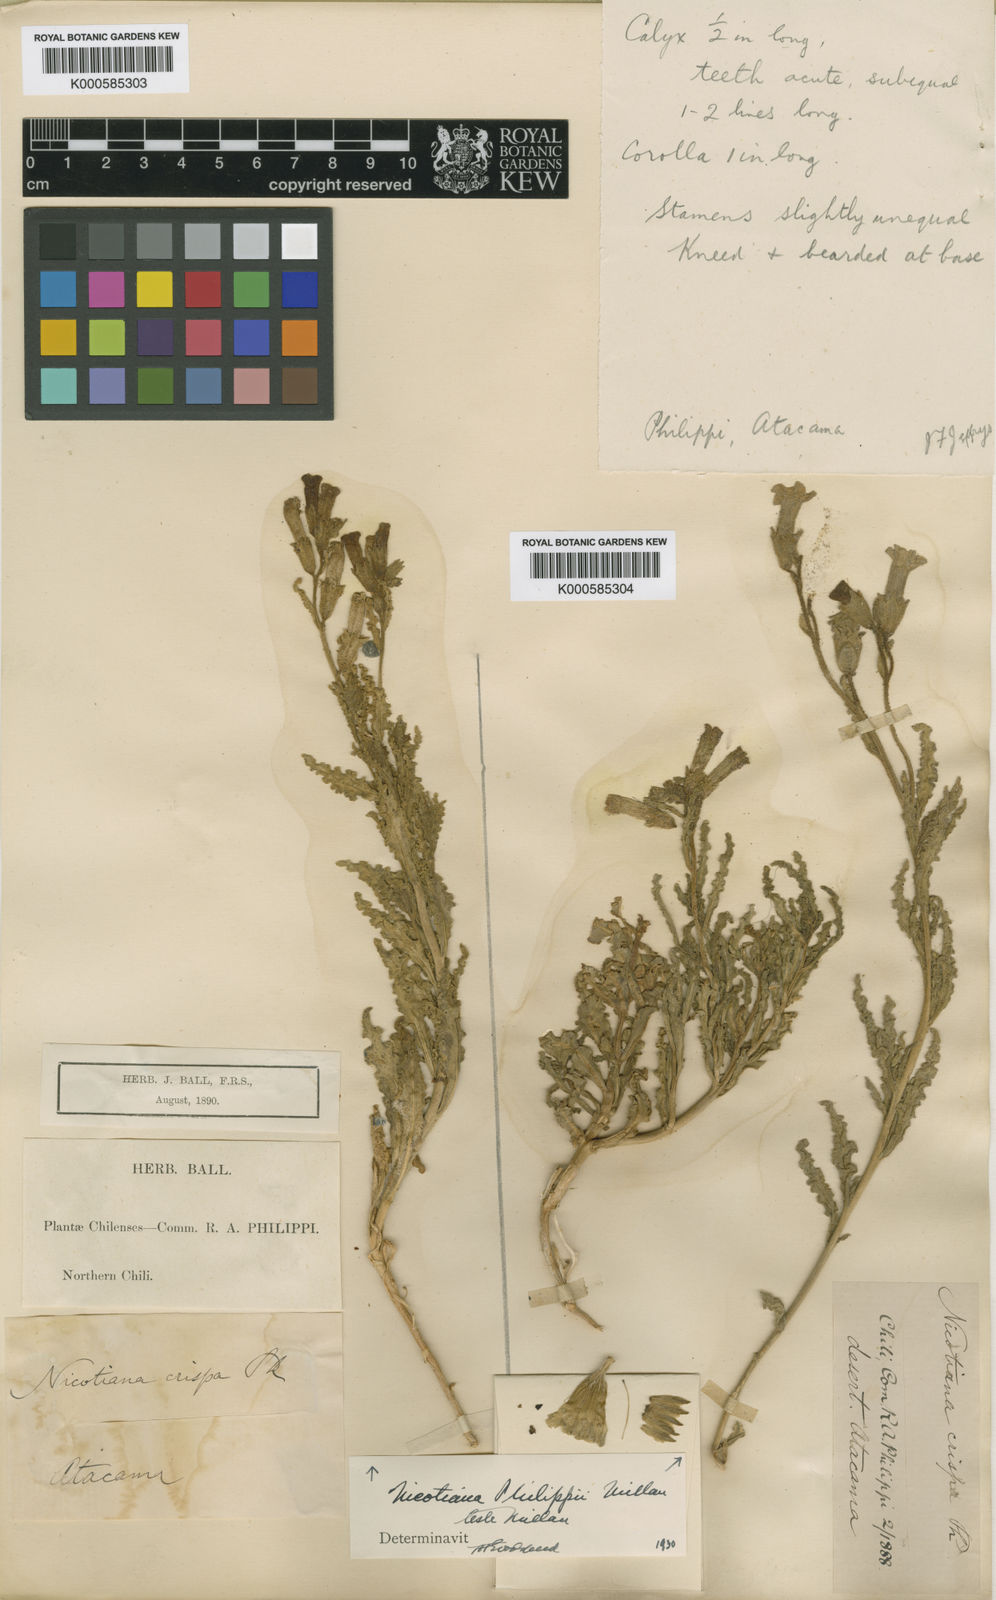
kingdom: Plantae
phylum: Tracheophyta
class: Magnoliopsida
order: Solanales
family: Solanaceae
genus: Nicotiana
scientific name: Nicotiana petunioides
